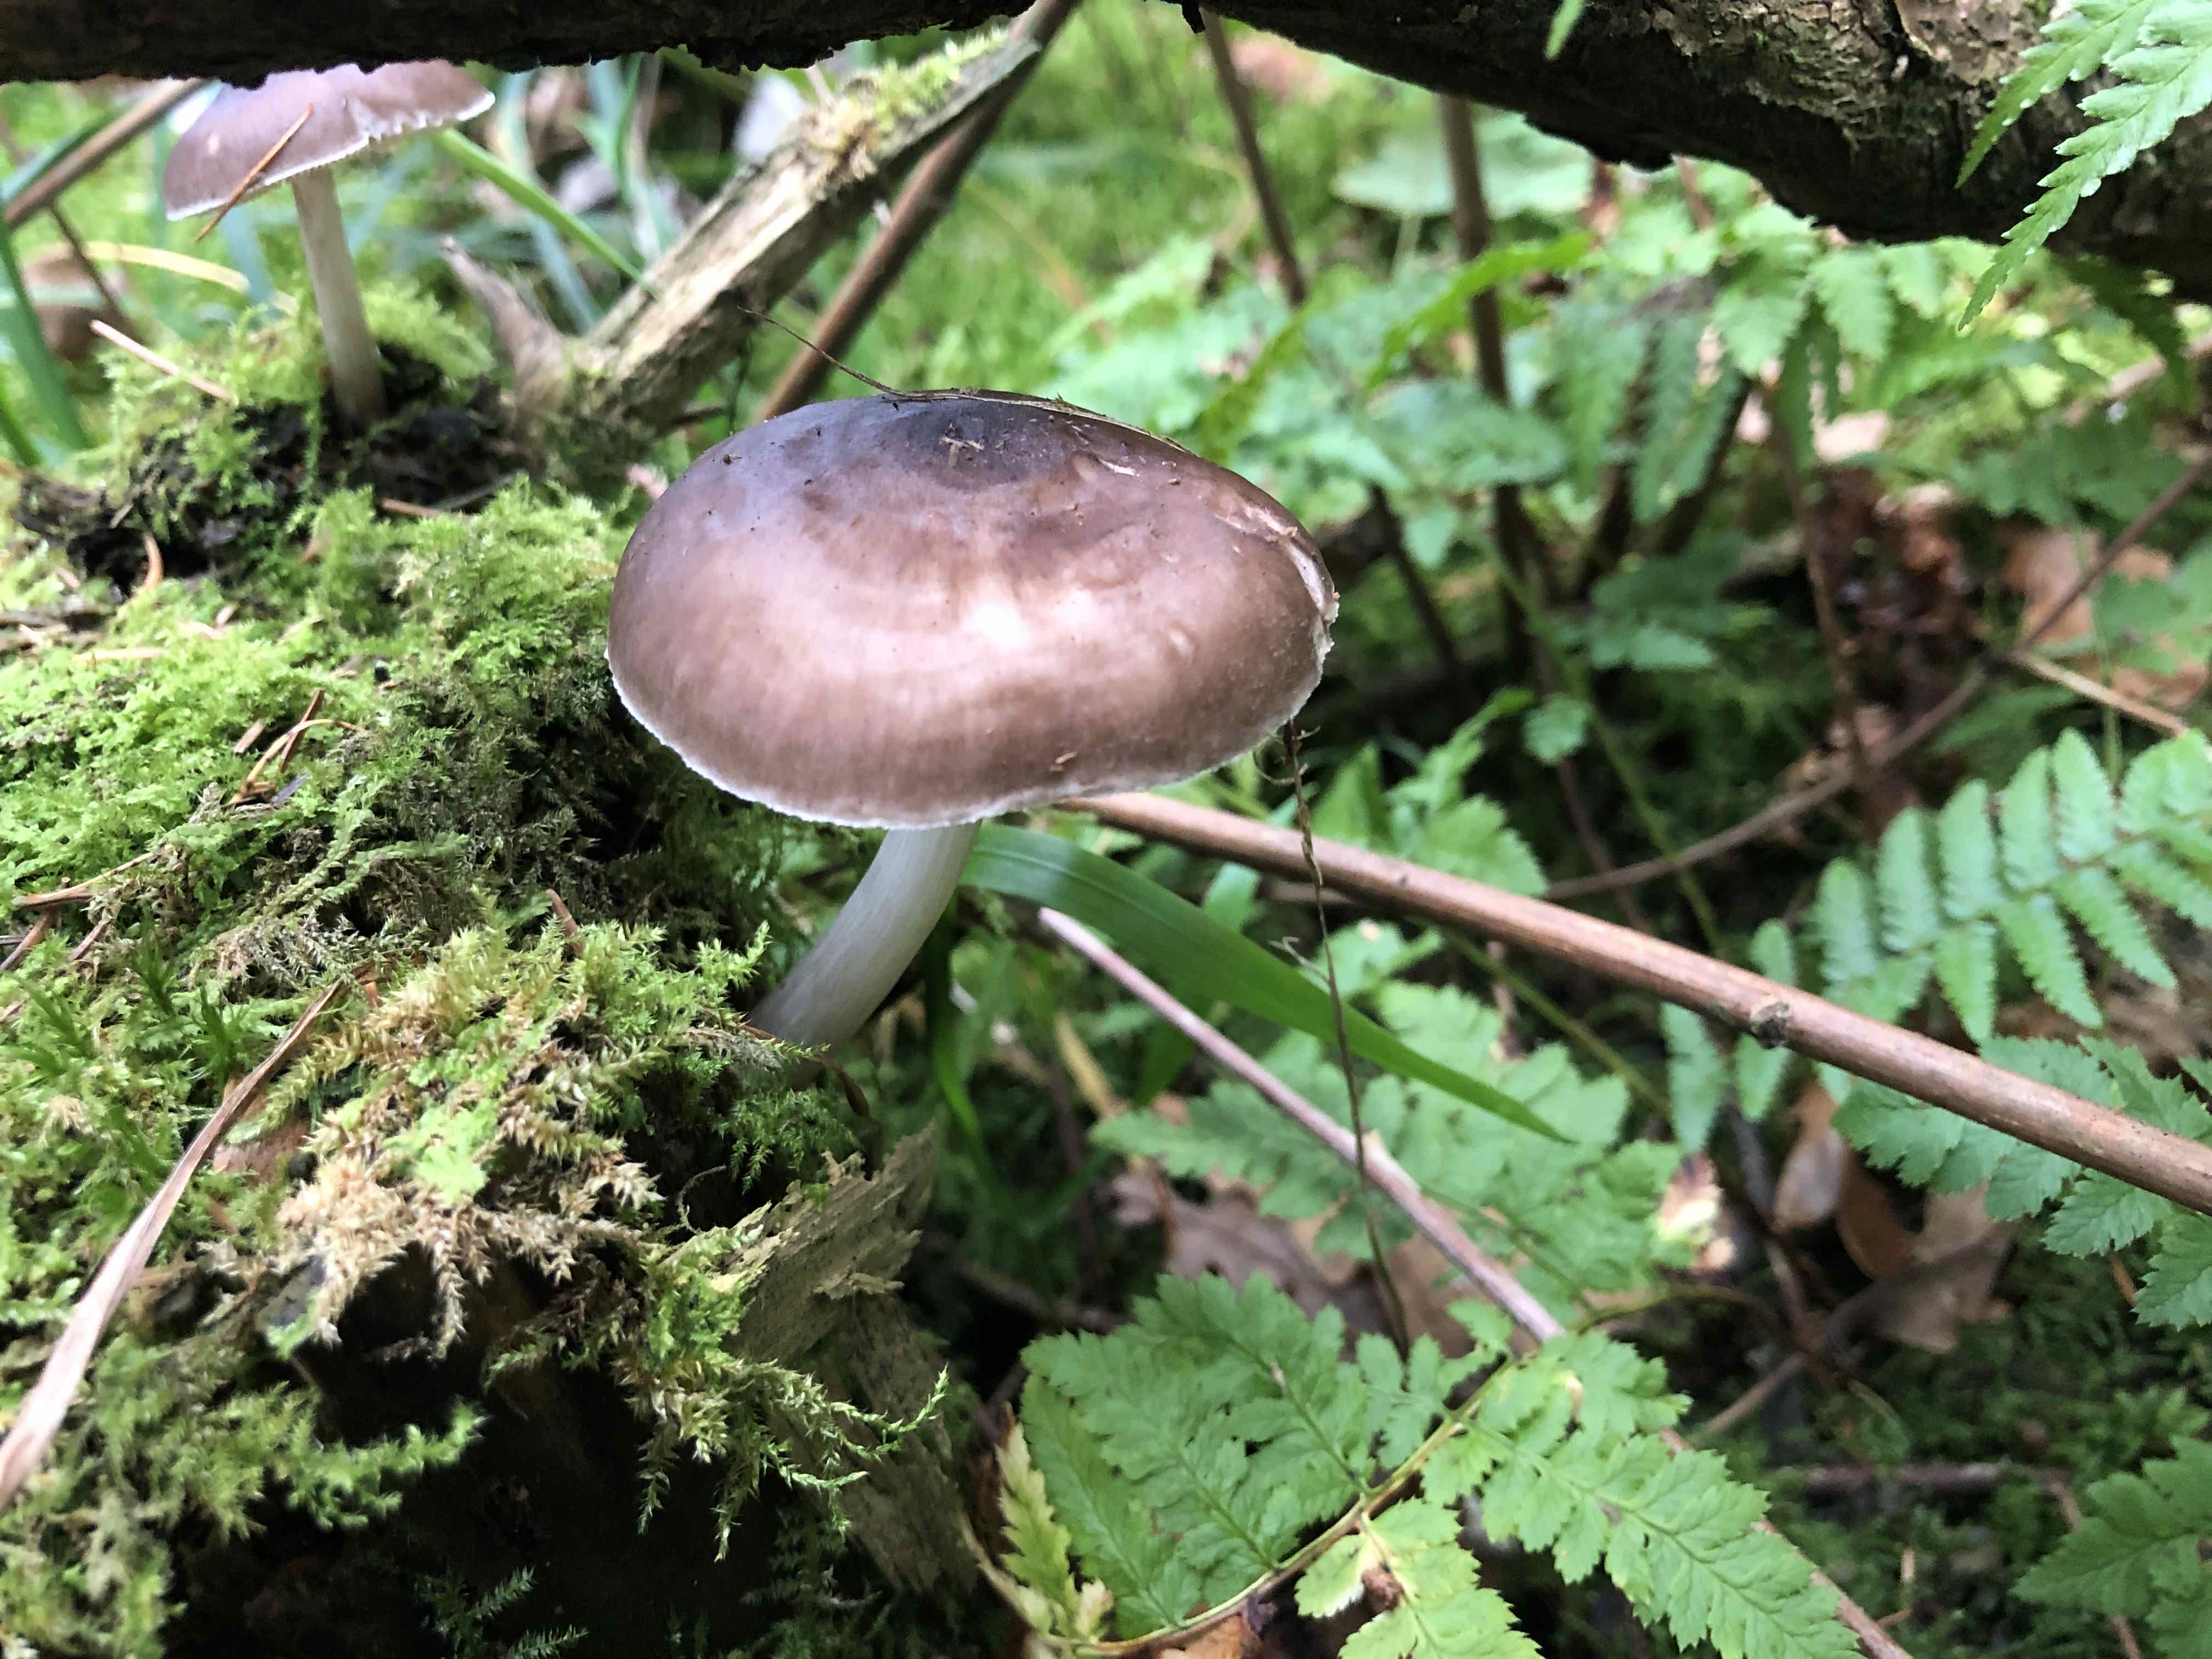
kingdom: Fungi
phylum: Basidiomycota
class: Agaricomycetes
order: Agaricales
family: Pluteaceae
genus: Pluteus
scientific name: Pluteus cervinus
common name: sodfarvet skærmhat
